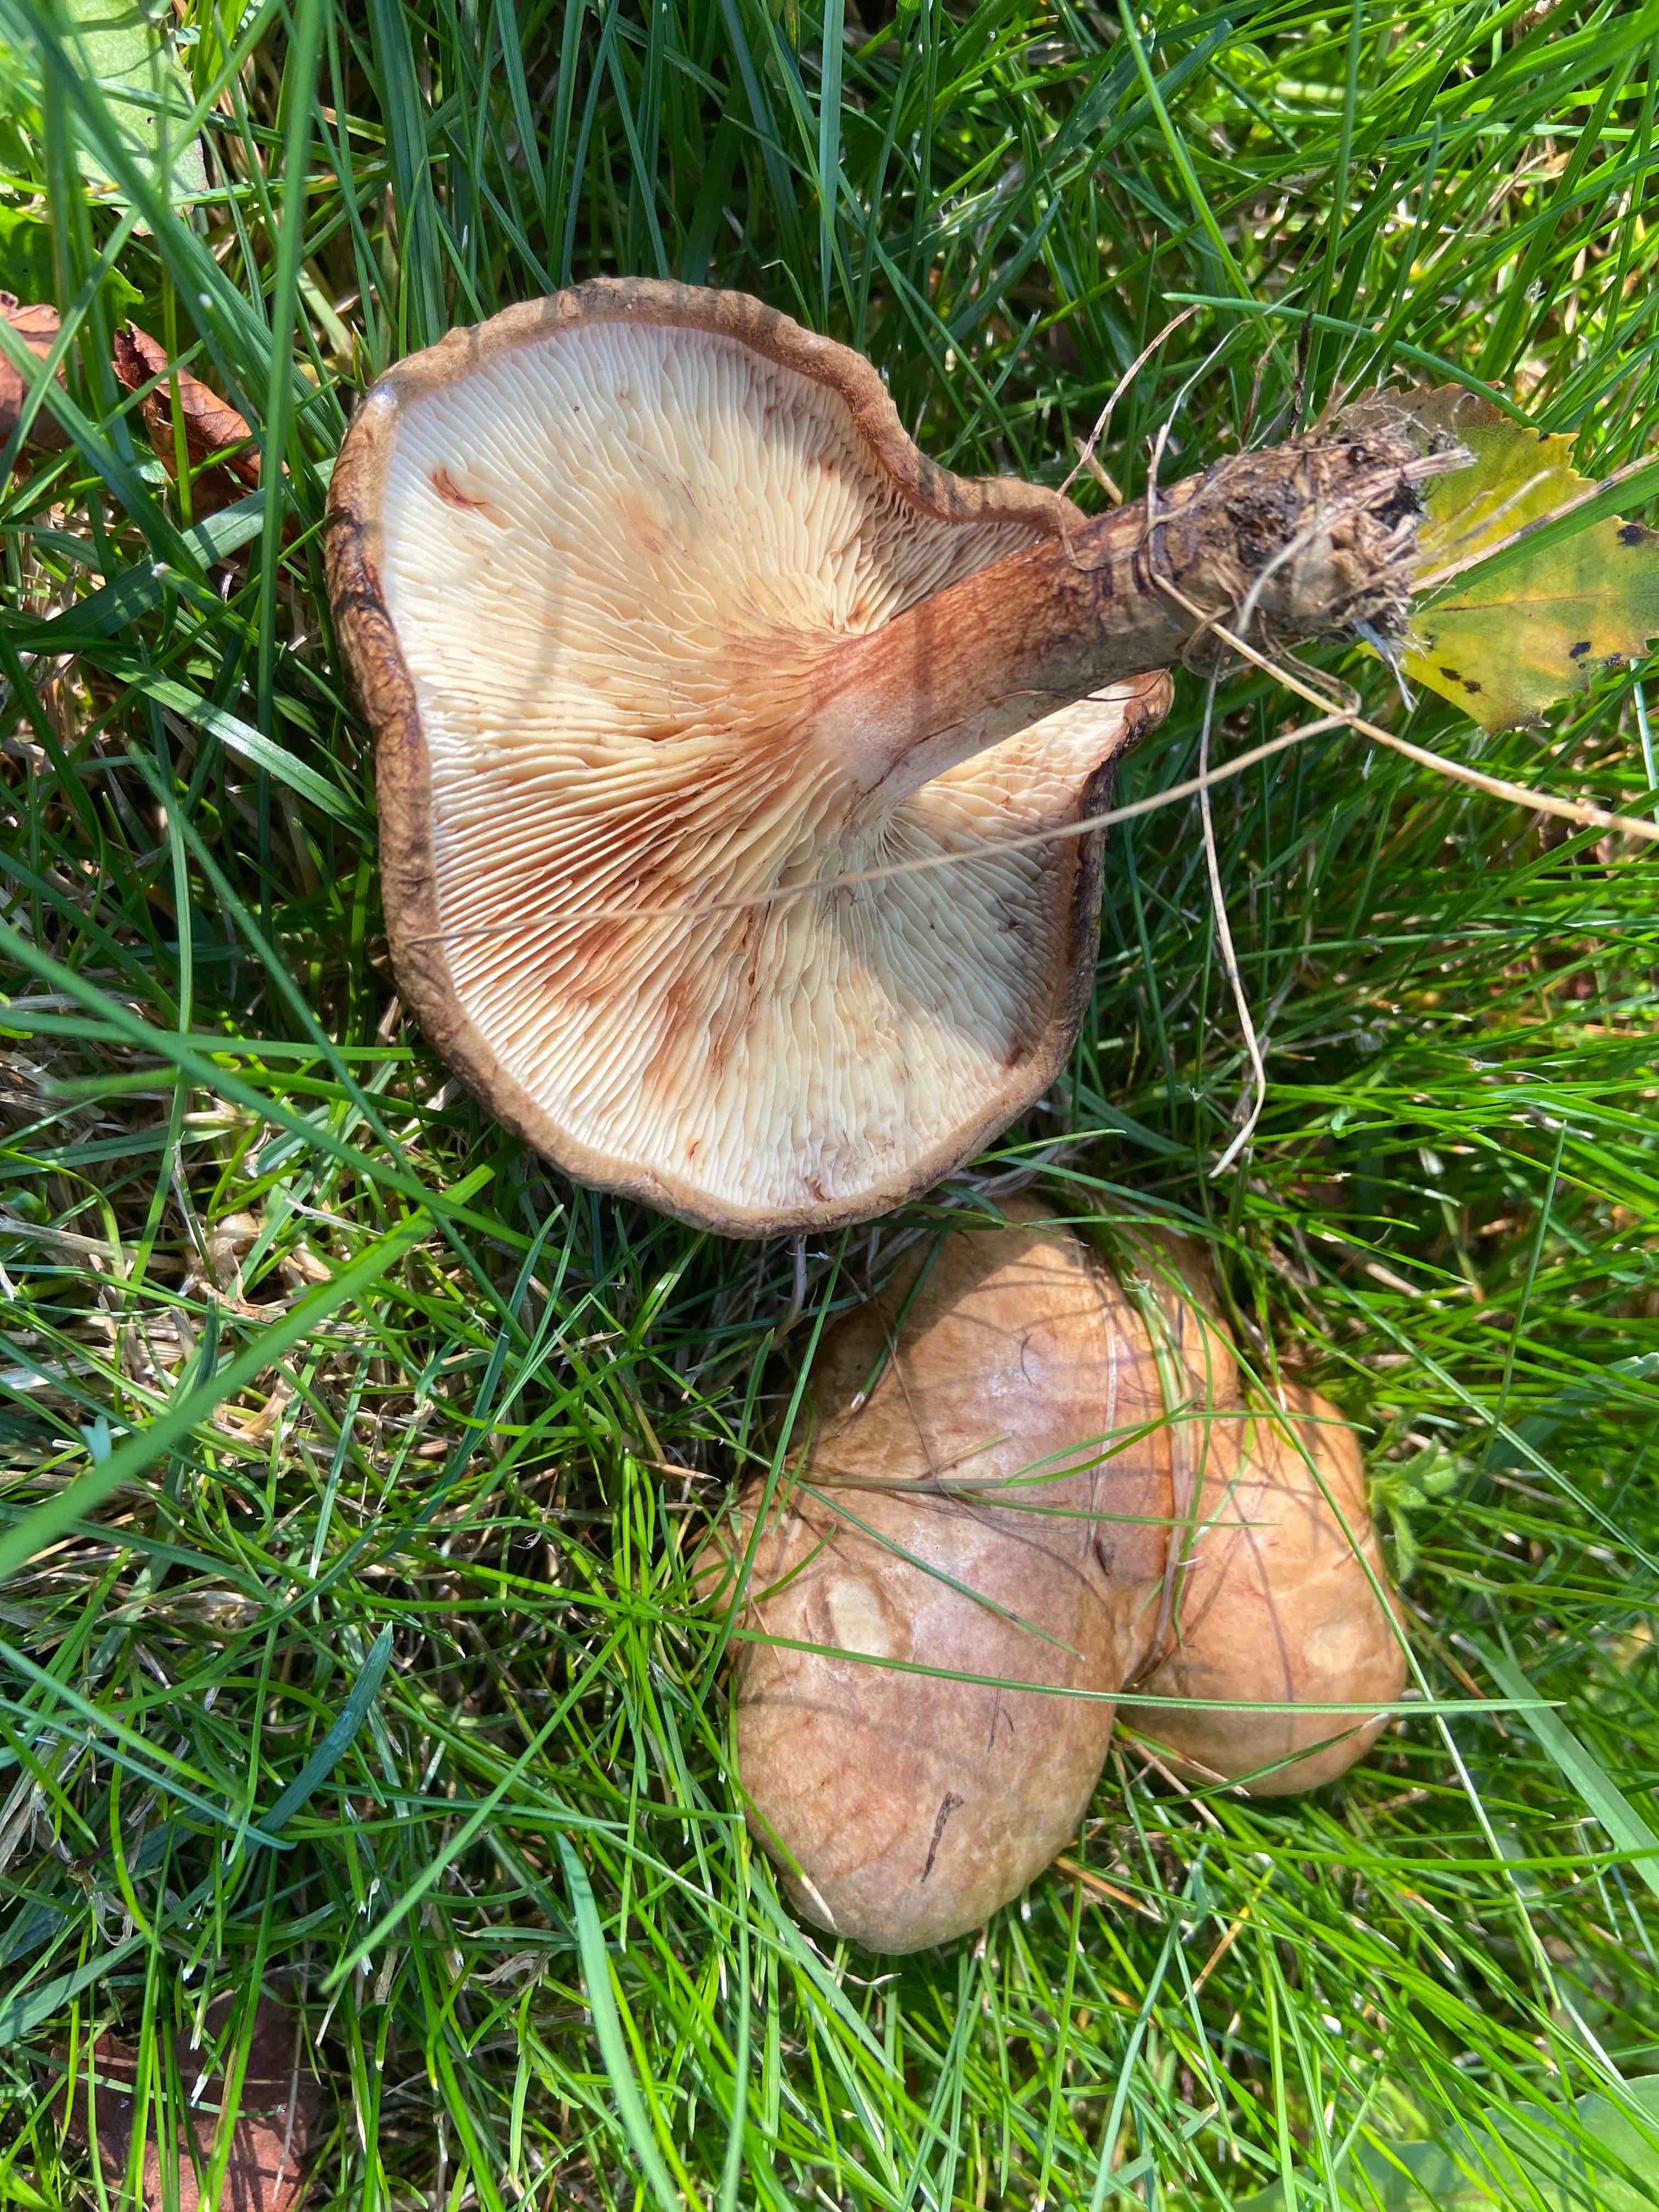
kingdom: Fungi
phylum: Basidiomycota
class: Agaricomycetes
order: Boletales
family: Paxillaceae
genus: Paxillus
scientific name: Paxillus involutus
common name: almindelig netbladhat
